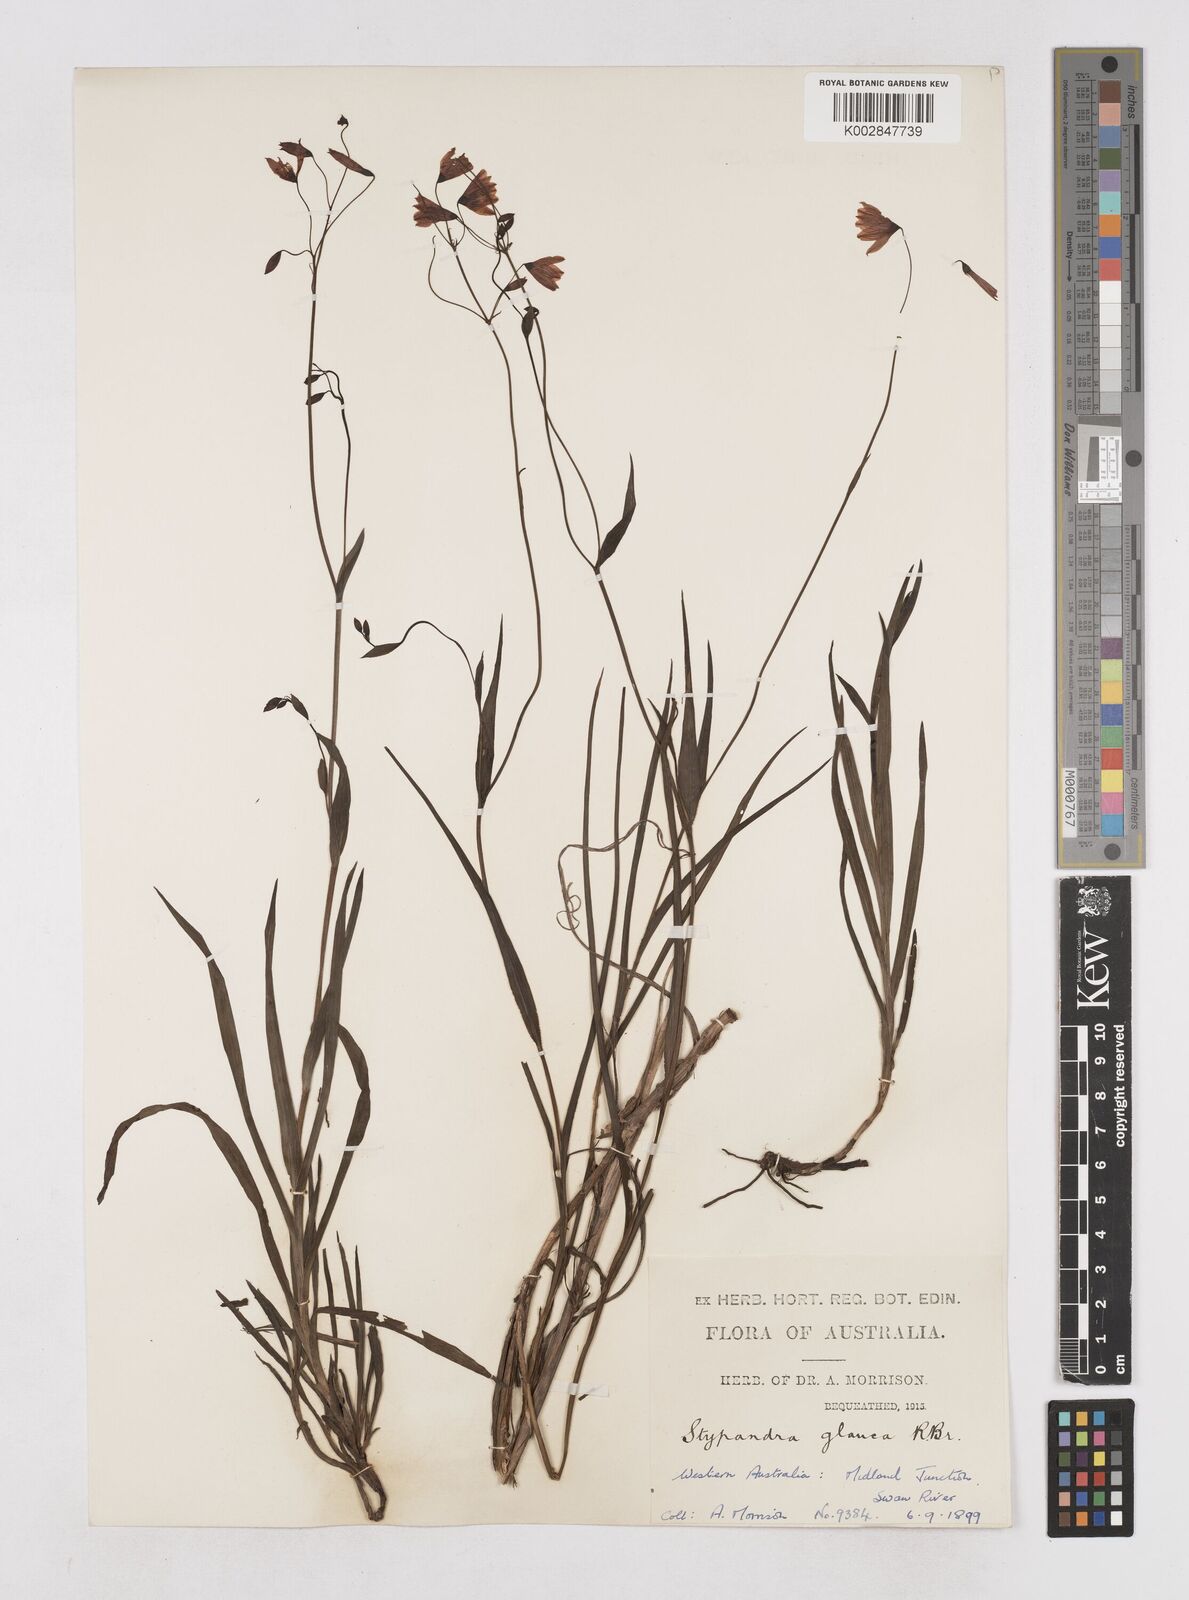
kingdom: Plantae
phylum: Tracheophyta
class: Liliopsida
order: Asparagales
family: Asphodelaceae
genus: Stypandra
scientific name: Stypandra glauca
